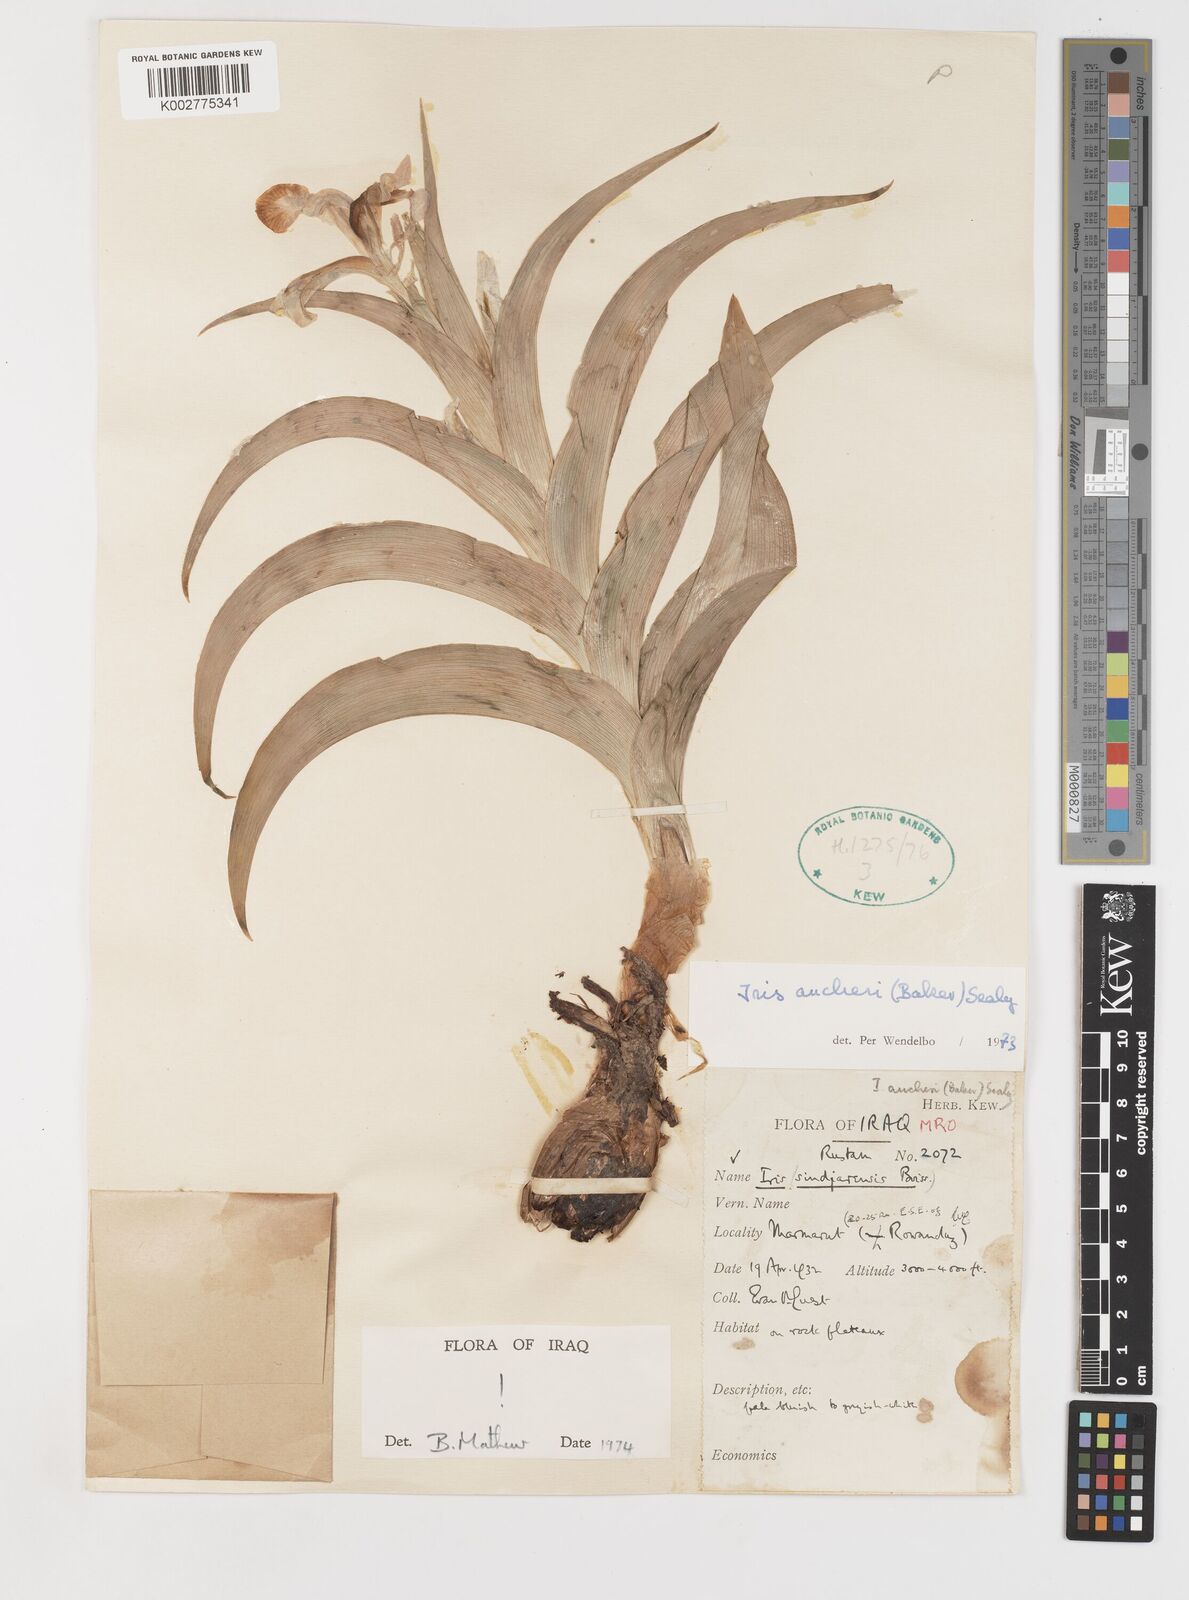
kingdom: Plantae
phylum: Tracheophyta
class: Liliopsida
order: Asparagales
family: Iridaceae
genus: Iris
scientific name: Iris aucheri
